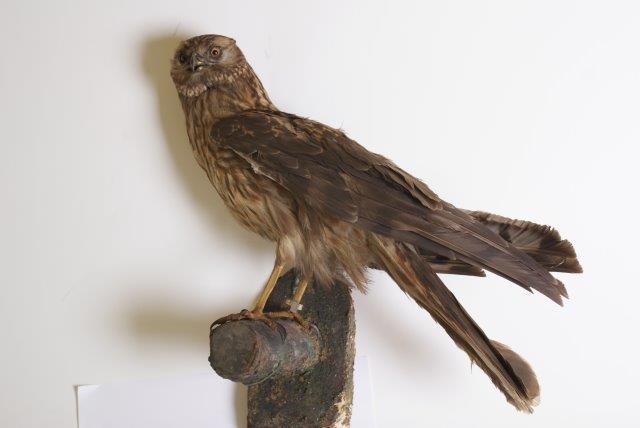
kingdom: Animalia
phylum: Chordata
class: Aves
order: Accipitriformes
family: Accipitridae
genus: Circus
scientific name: Circus cyaneus
